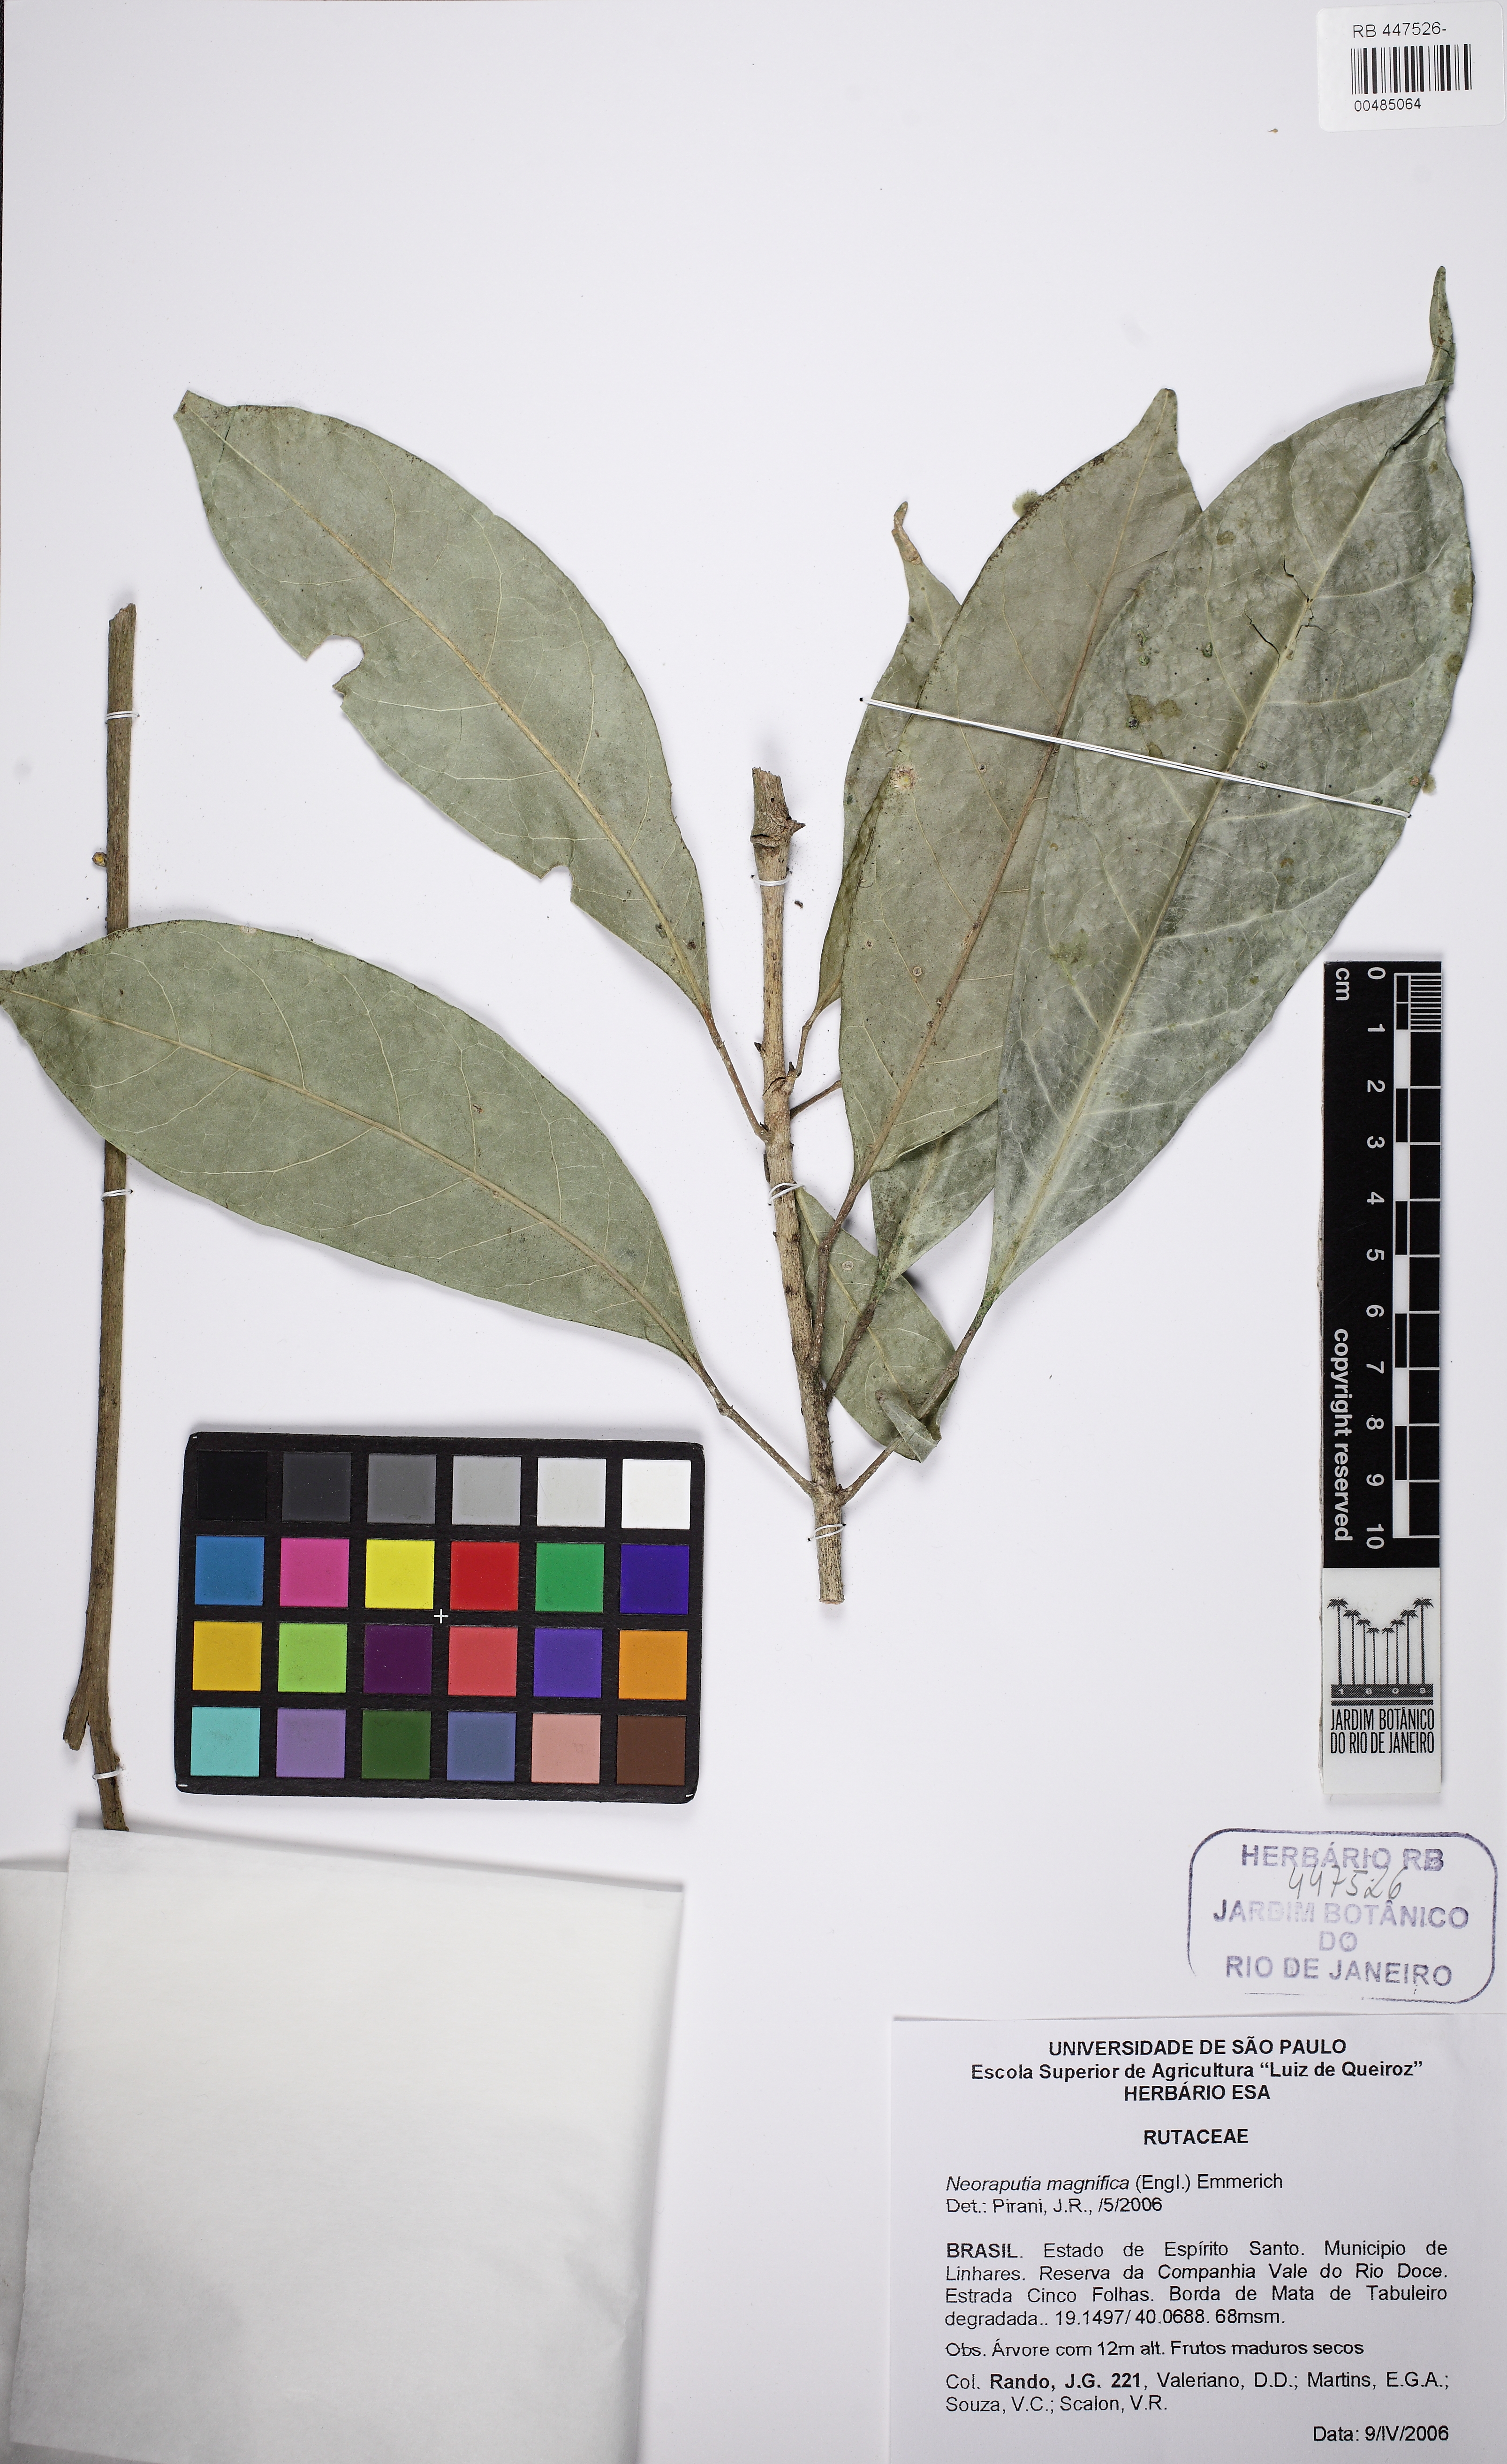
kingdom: Plantae
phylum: Tracheophyta
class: Magnoliopsida
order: Sapindales
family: Rutaceae
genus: Neoraputia
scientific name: Neoraputia magnifica
